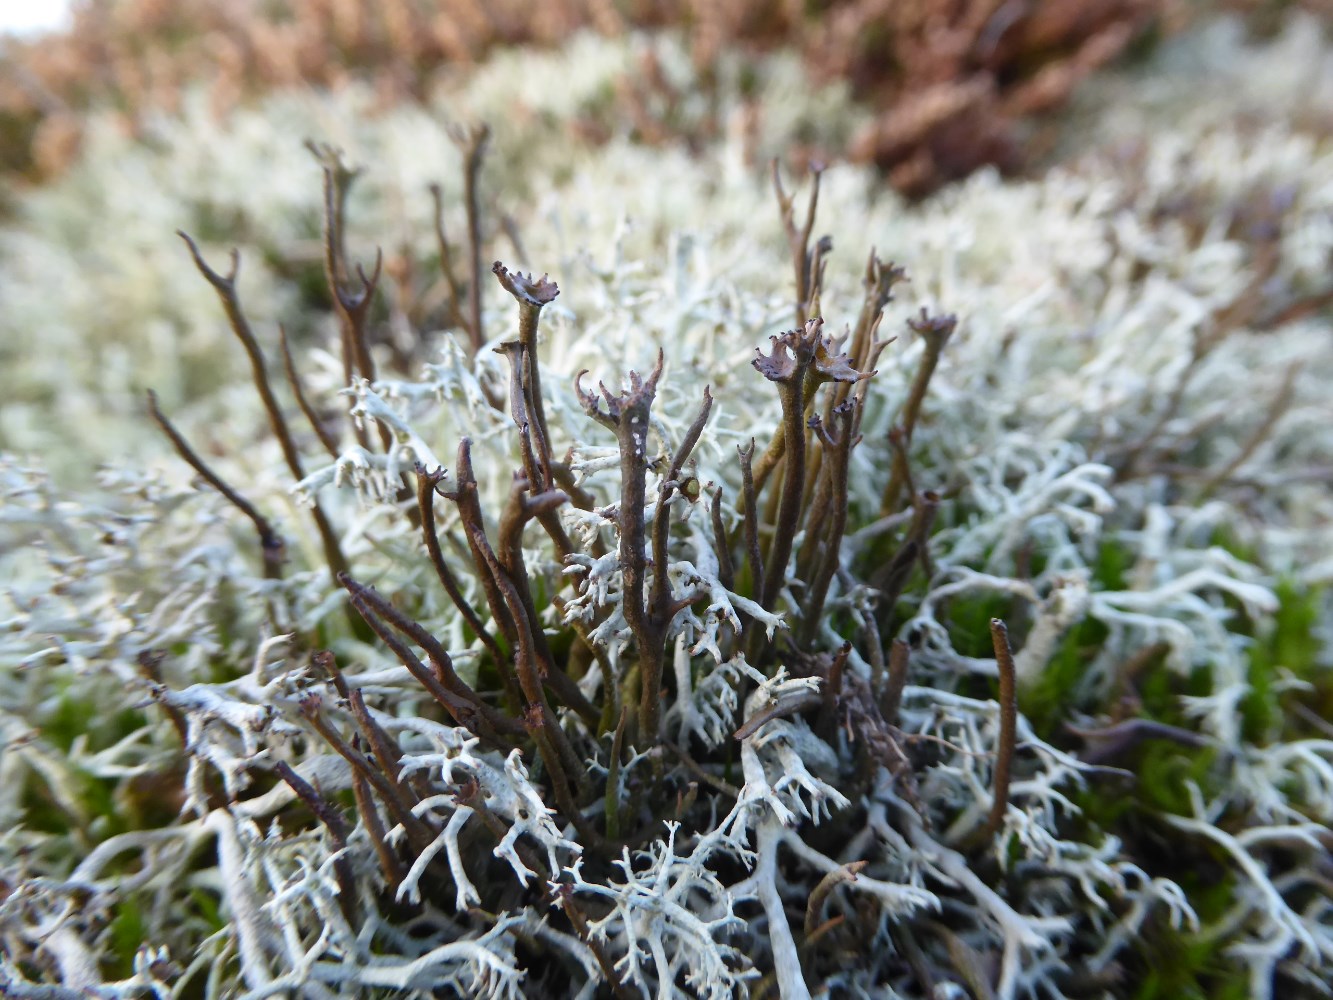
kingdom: Fungi
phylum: Ascomycota
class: Lecanoromycetes
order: Lecanorales
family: Cladoniaceae
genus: Cladonia
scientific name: Cladonia gracilis
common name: slank bægerlav
